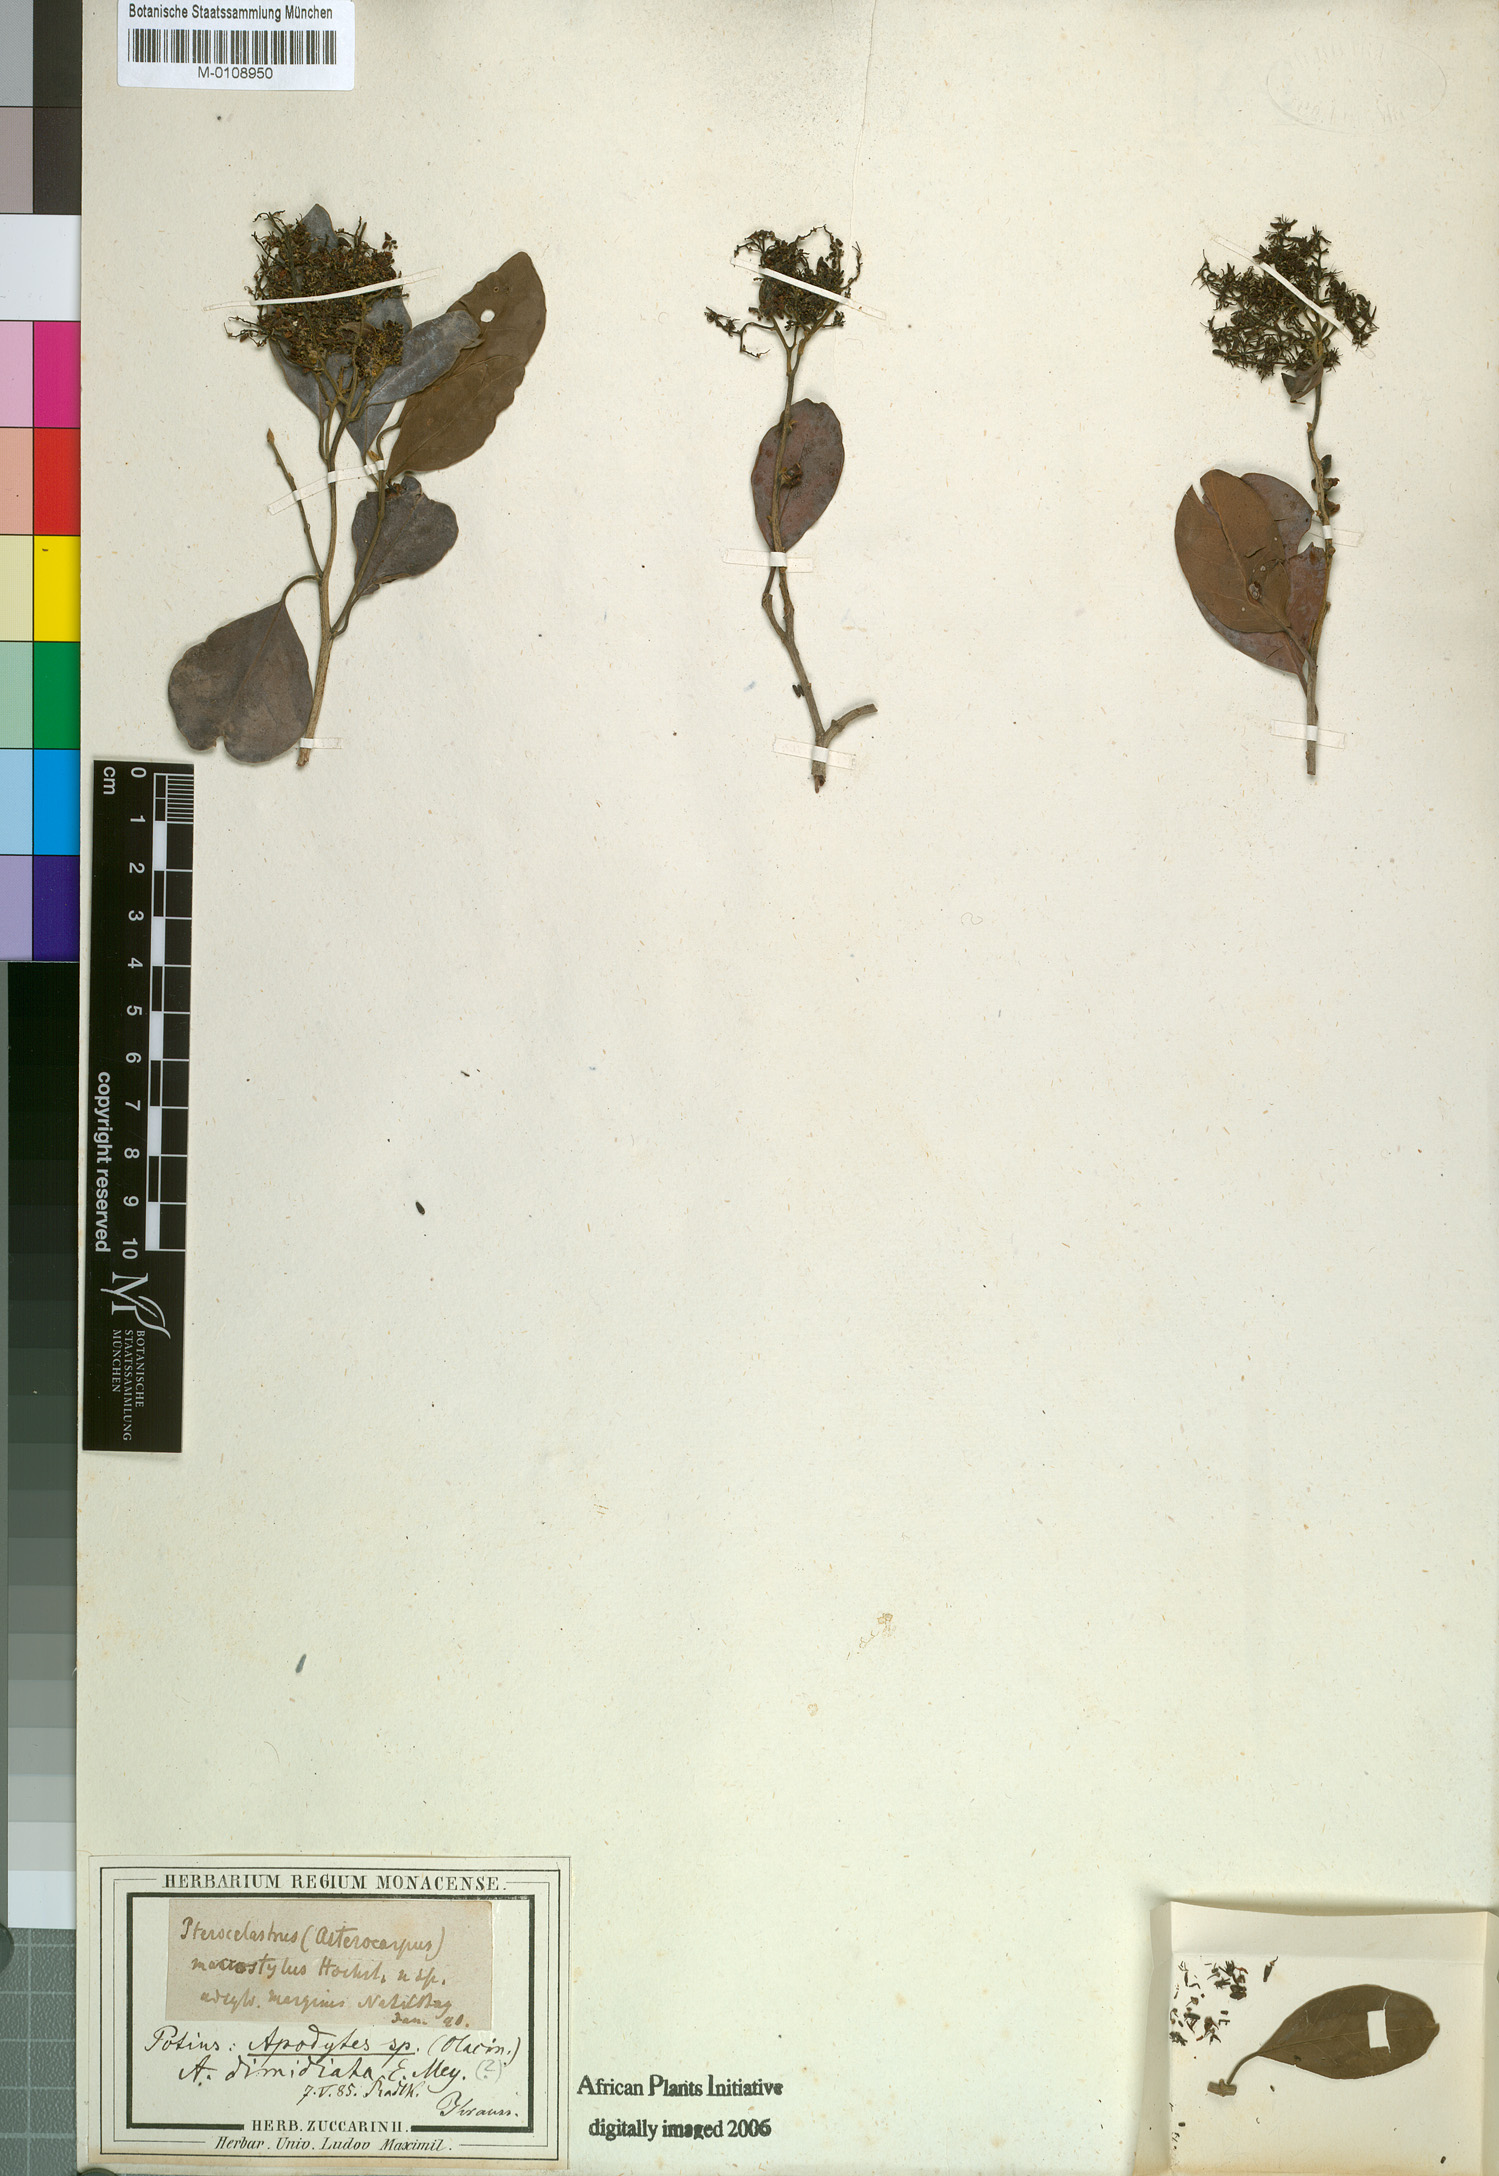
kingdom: Plantae
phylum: Tracheophyta
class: Magnoliopsida
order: Metteniusales
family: Metteniusaceae
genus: Apodytes
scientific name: Apodytes dimidiata
